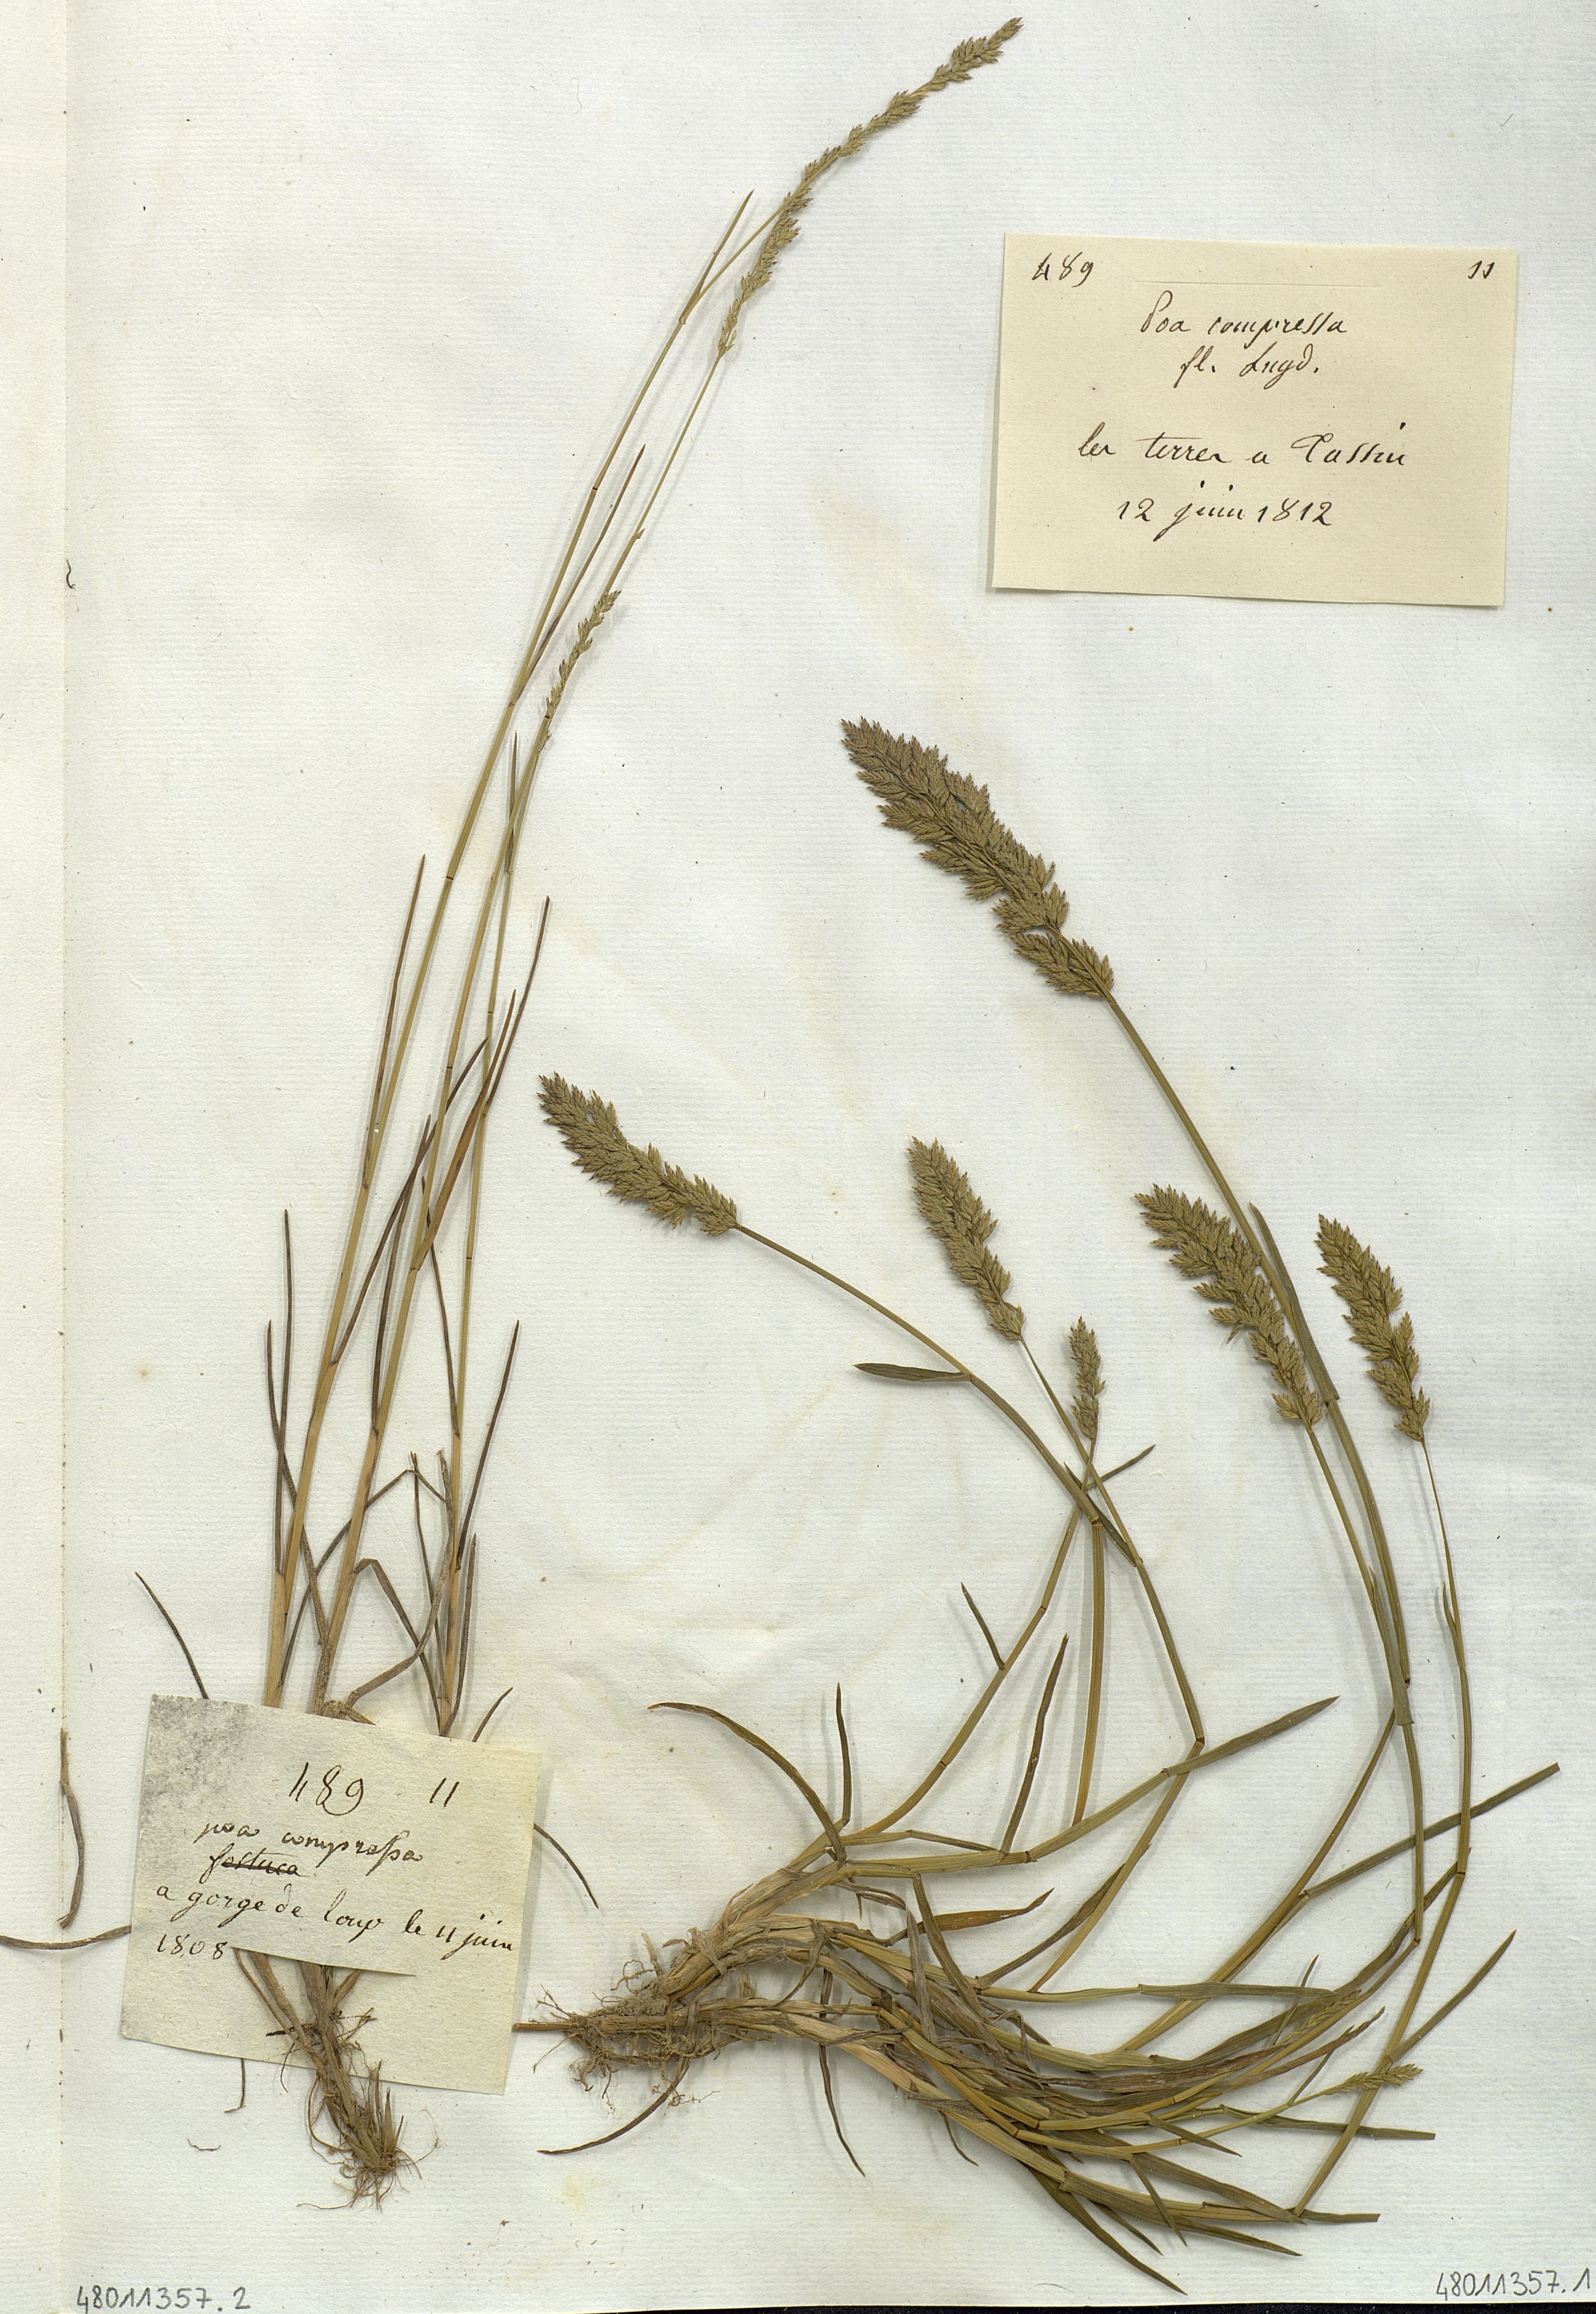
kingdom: Plantae
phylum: Tracheophyta
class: Liliopsida
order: Poales
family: Poaceae
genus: Poa
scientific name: Poa compressa
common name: Canada bluegrass
